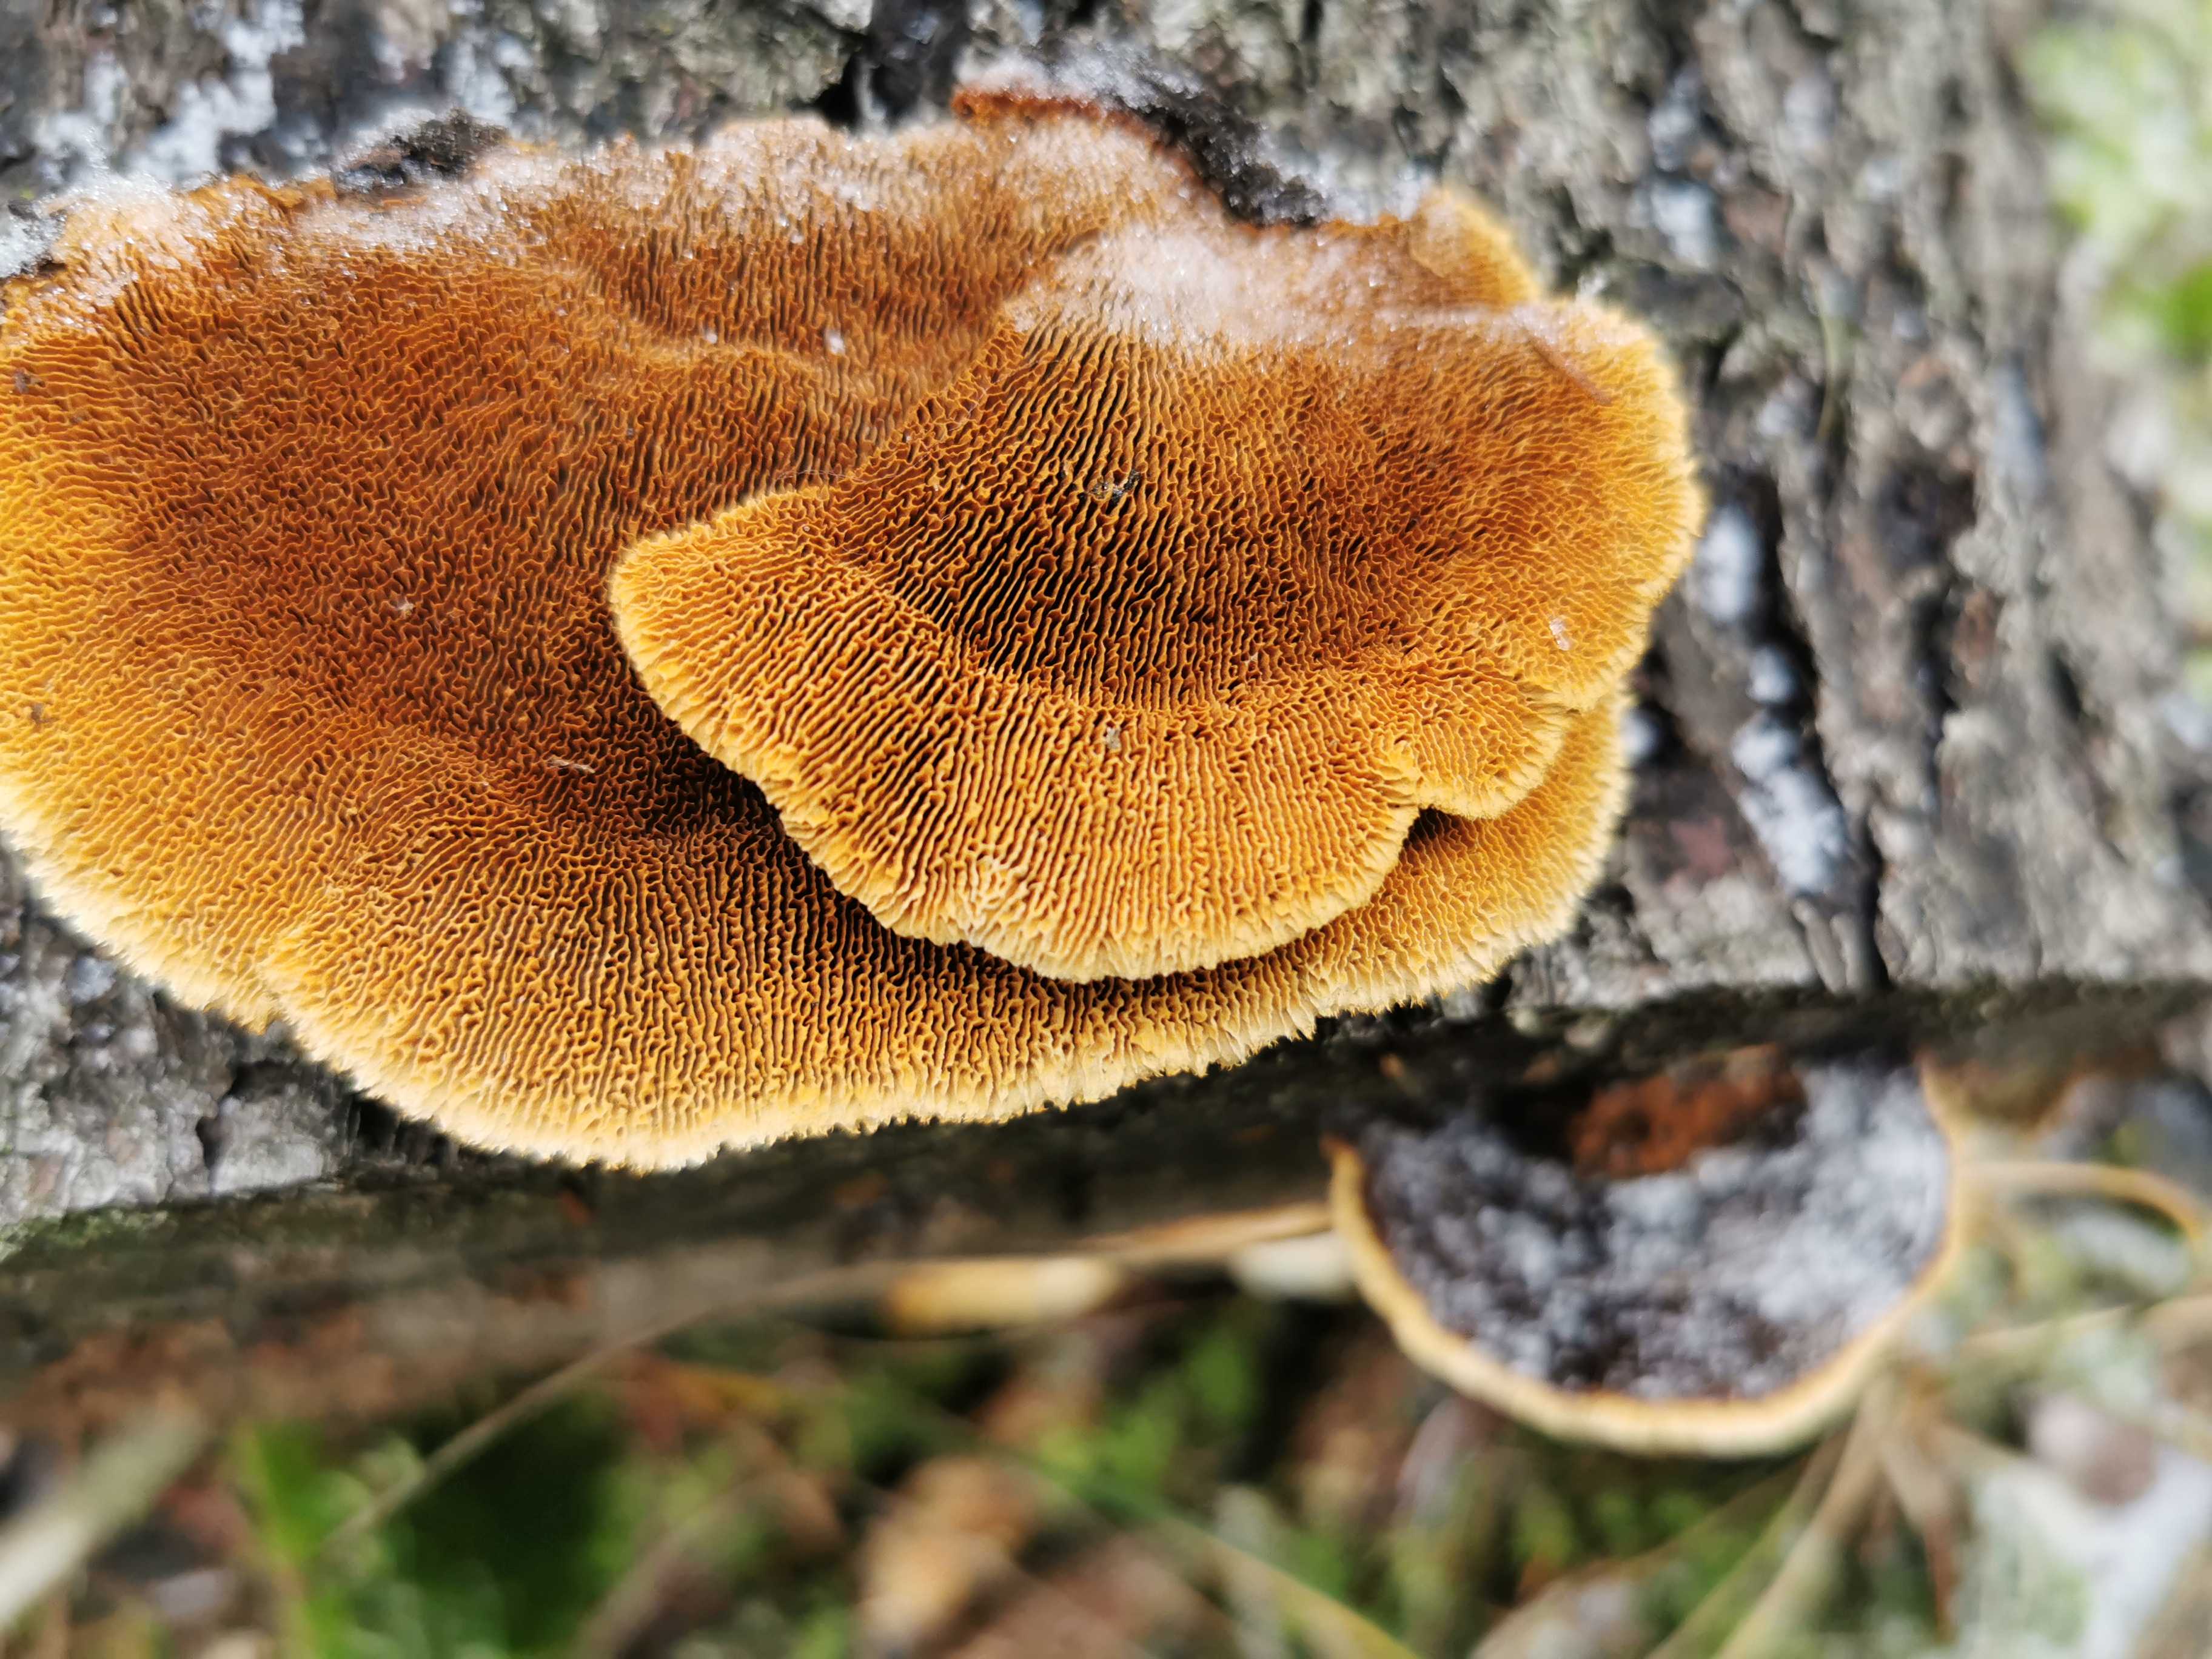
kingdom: Fungi
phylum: Basidiomycota
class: Agaricomycetes
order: Gloeophyllales
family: Gloeophyllaceae
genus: Gloeophyllum
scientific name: Gloeophyllum sepiarium
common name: fyrre-korkhat
